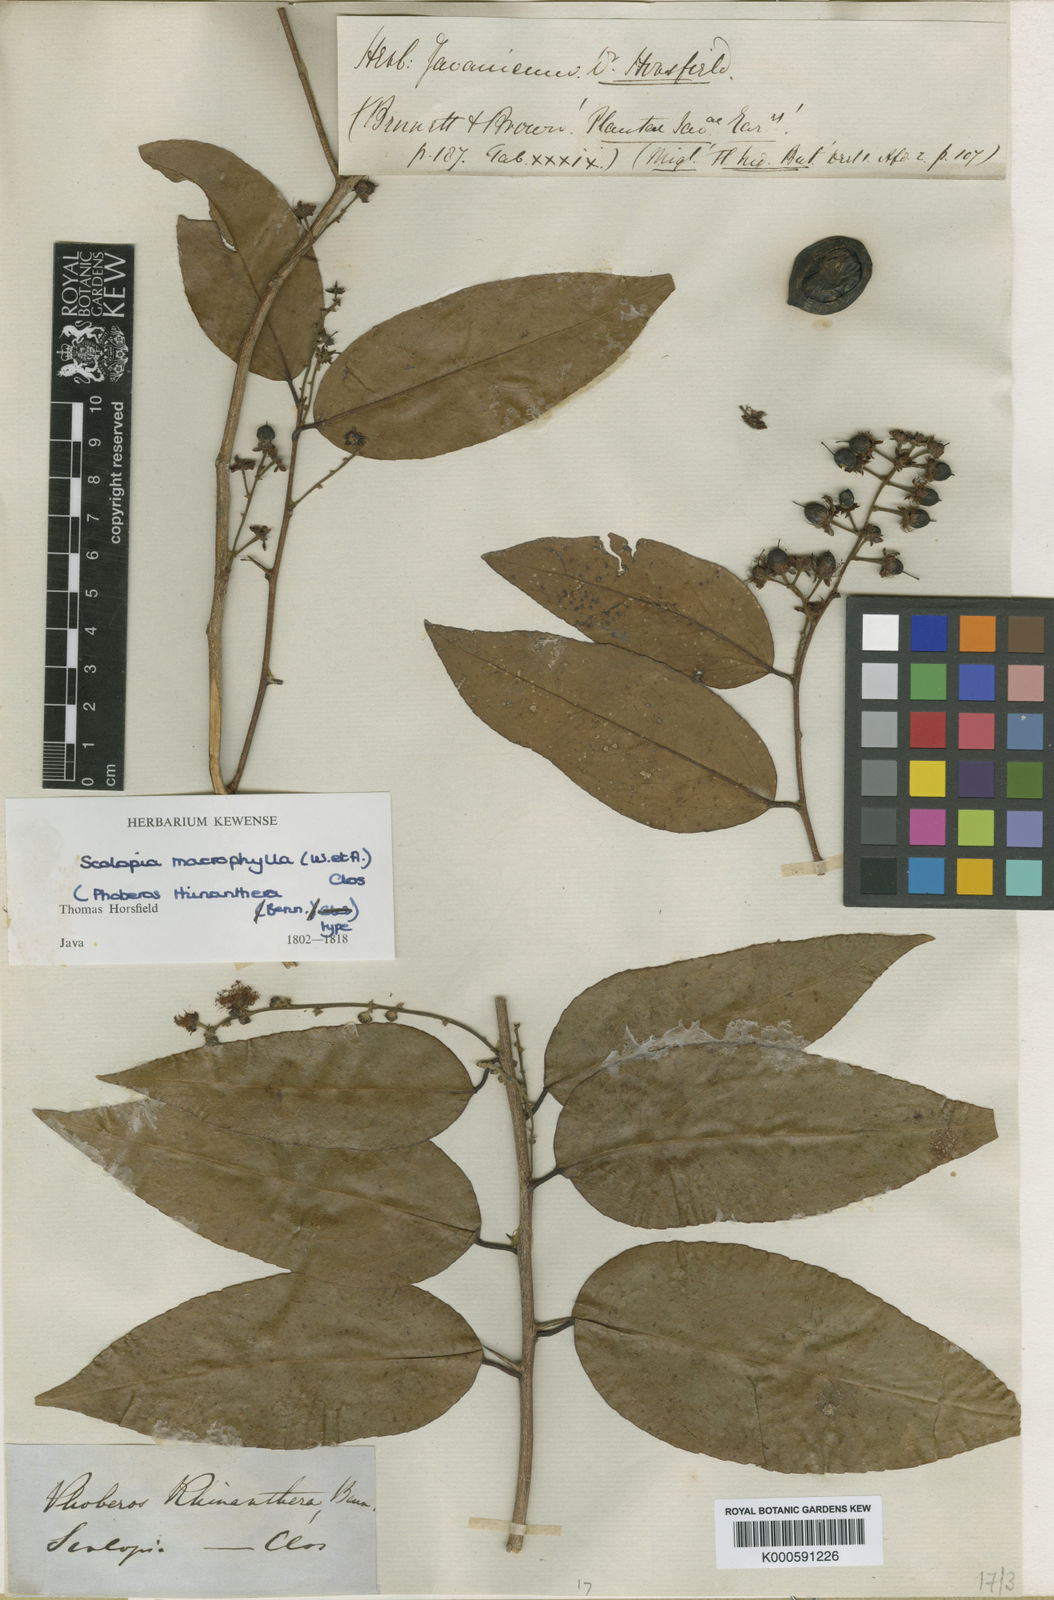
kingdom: Plantae
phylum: Tracheophyta
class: Magnoliopsida
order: Malpighiales
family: Salicaceae
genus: Scolopia
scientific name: Scolopia macrophylla
